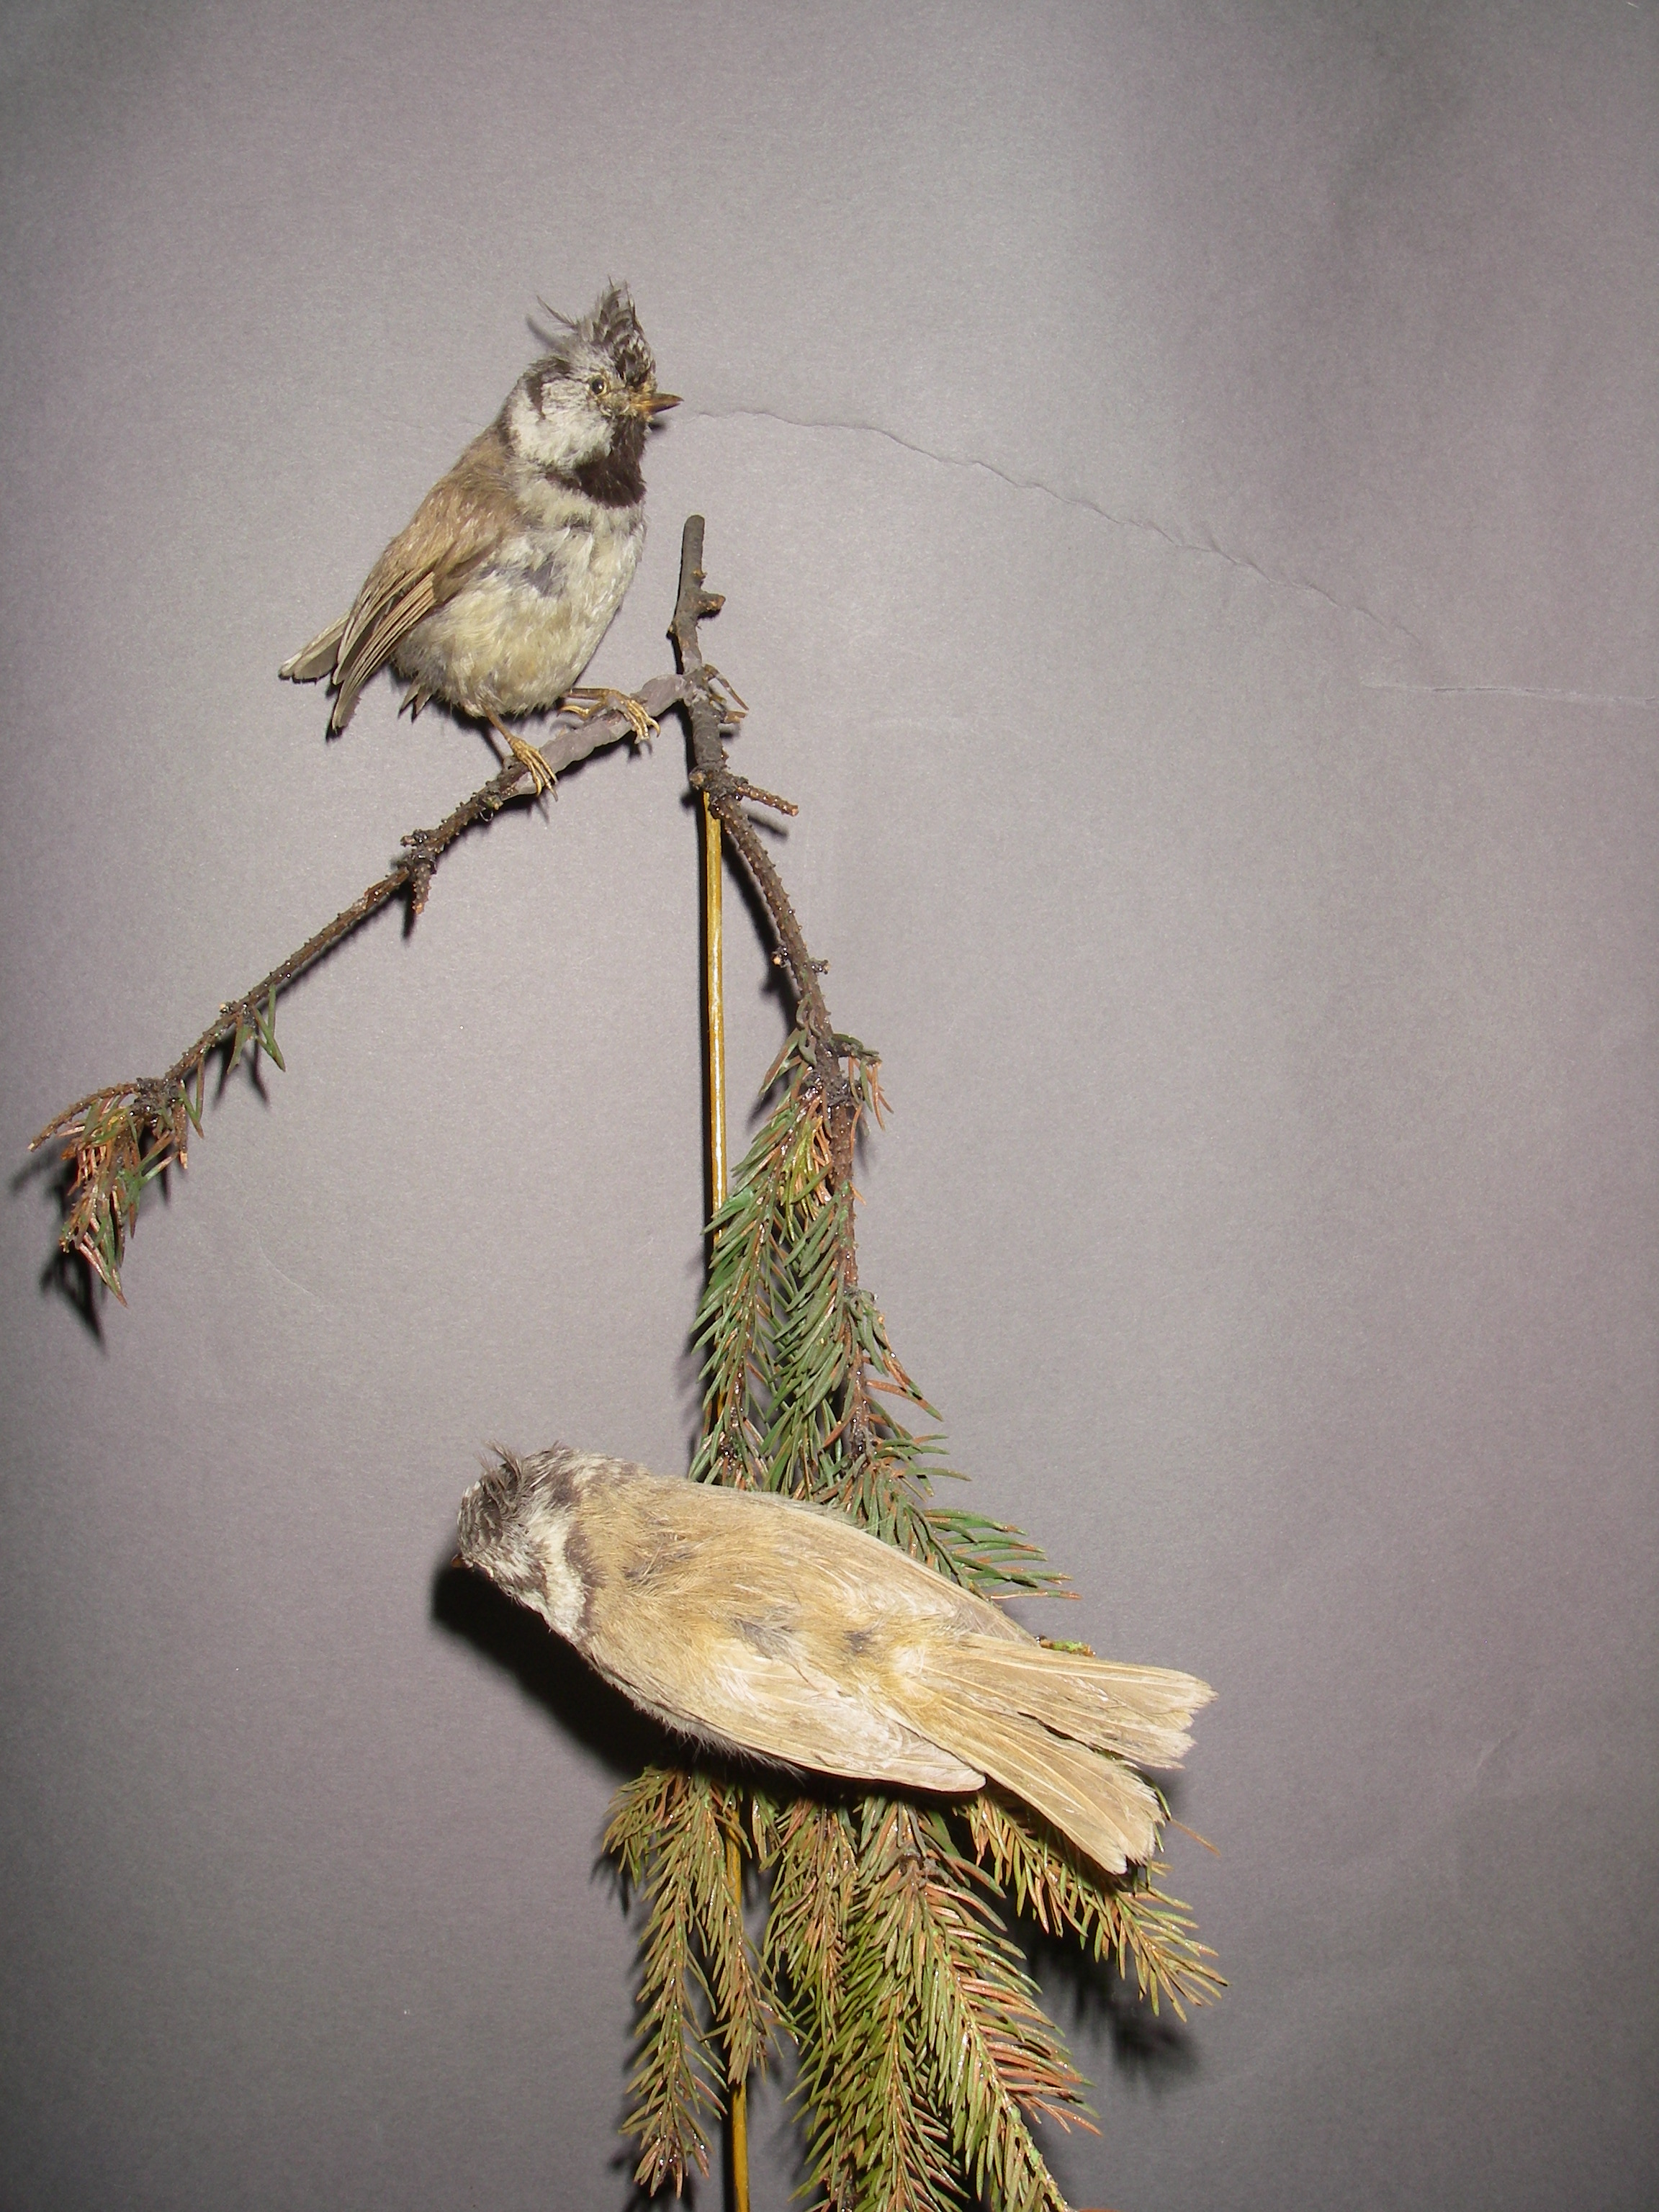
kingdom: Animalia
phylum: Chordata
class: Aves
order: Passeriformes
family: Paridae
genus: Lophophanes
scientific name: Lophophanes cristatus
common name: European crested tit
